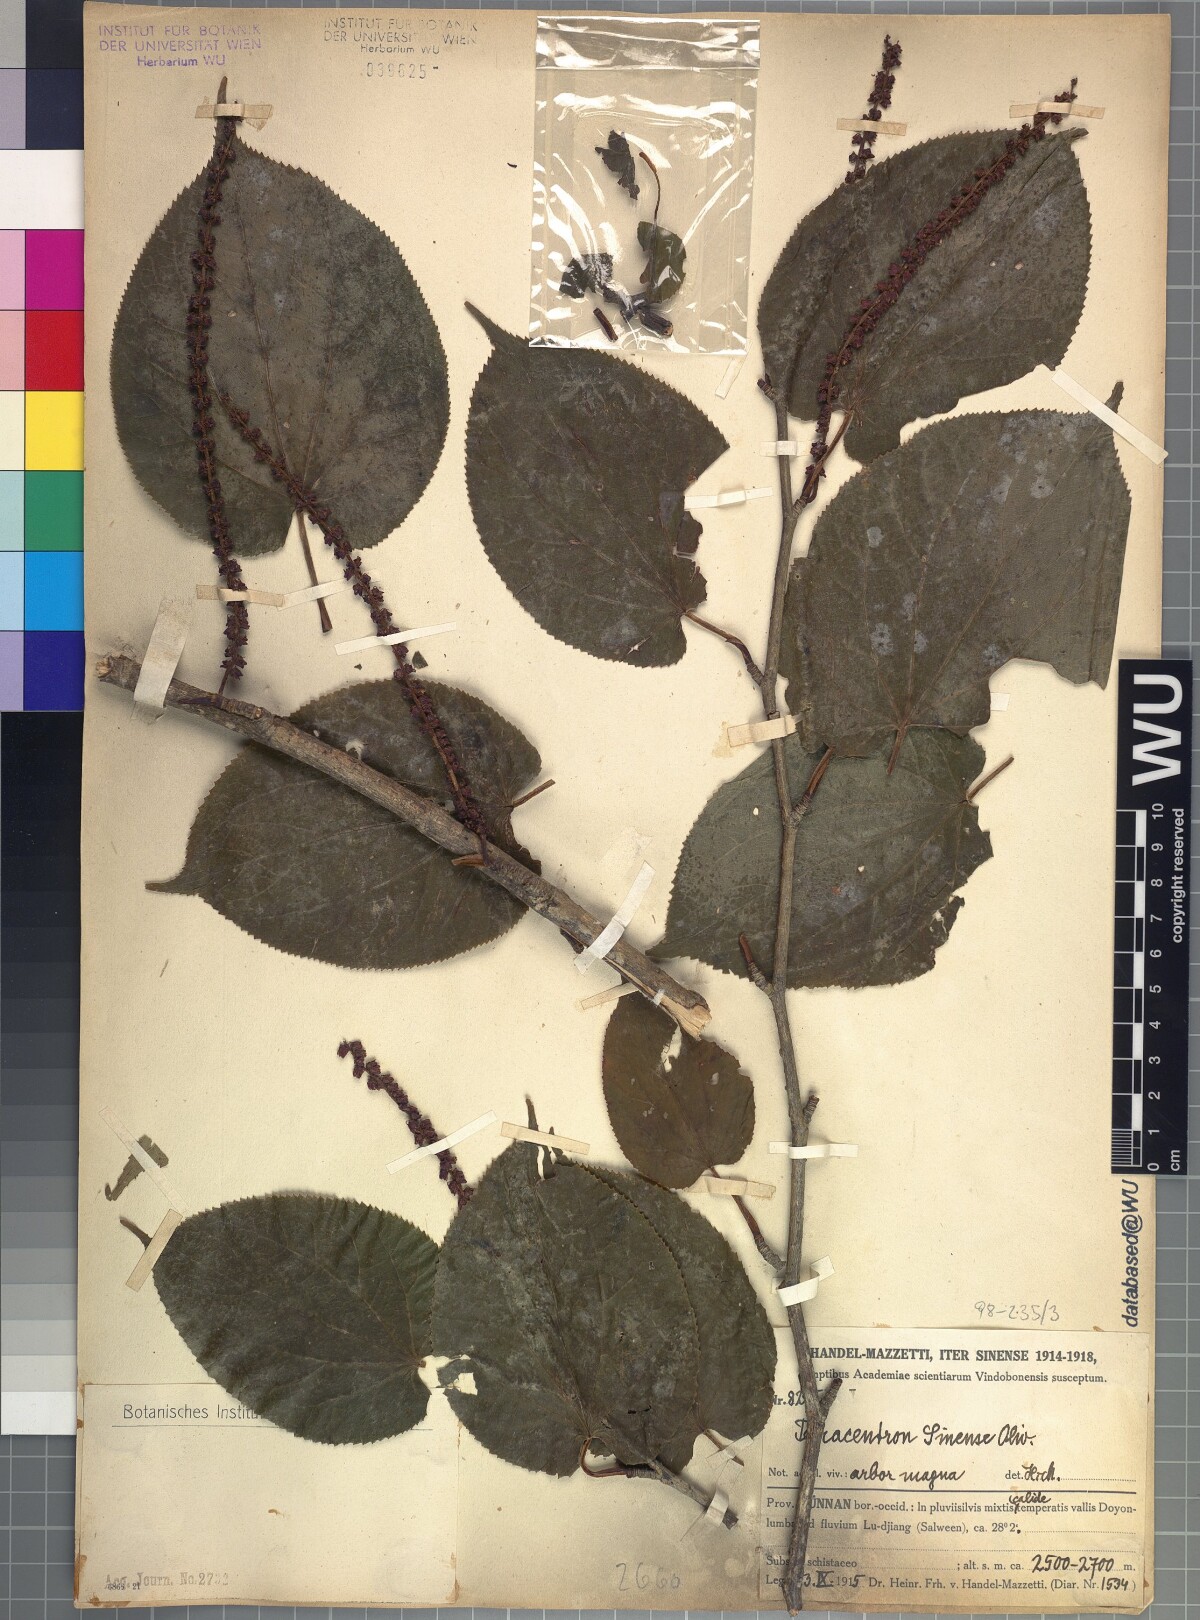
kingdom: Plantae
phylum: Tracheophyta
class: Magnoliopsida
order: Trochodendrales
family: Trochodendraceae
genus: Tetracentron
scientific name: Tetracentron sinense
